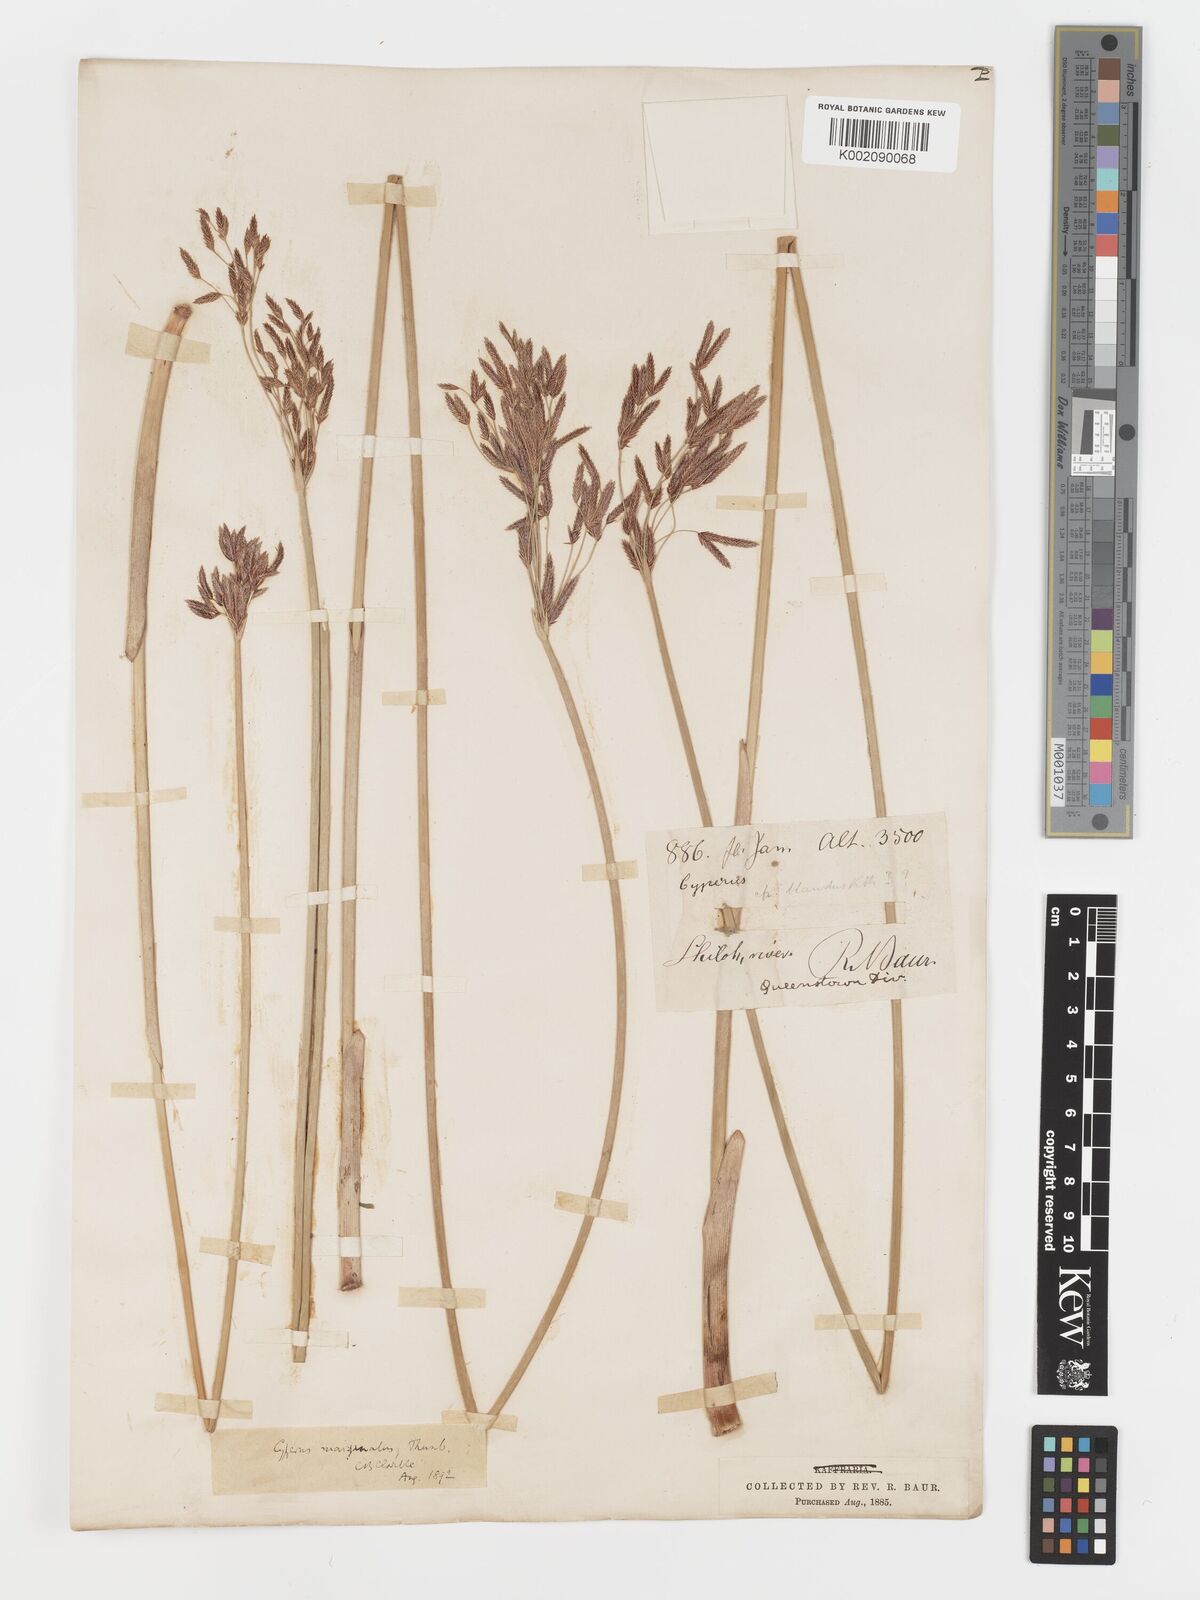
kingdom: Plantae
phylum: Tracheophyta
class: Liliopsida
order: Poales
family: Cyperaceae
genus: Cyperus
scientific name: Cyperus marginatus
